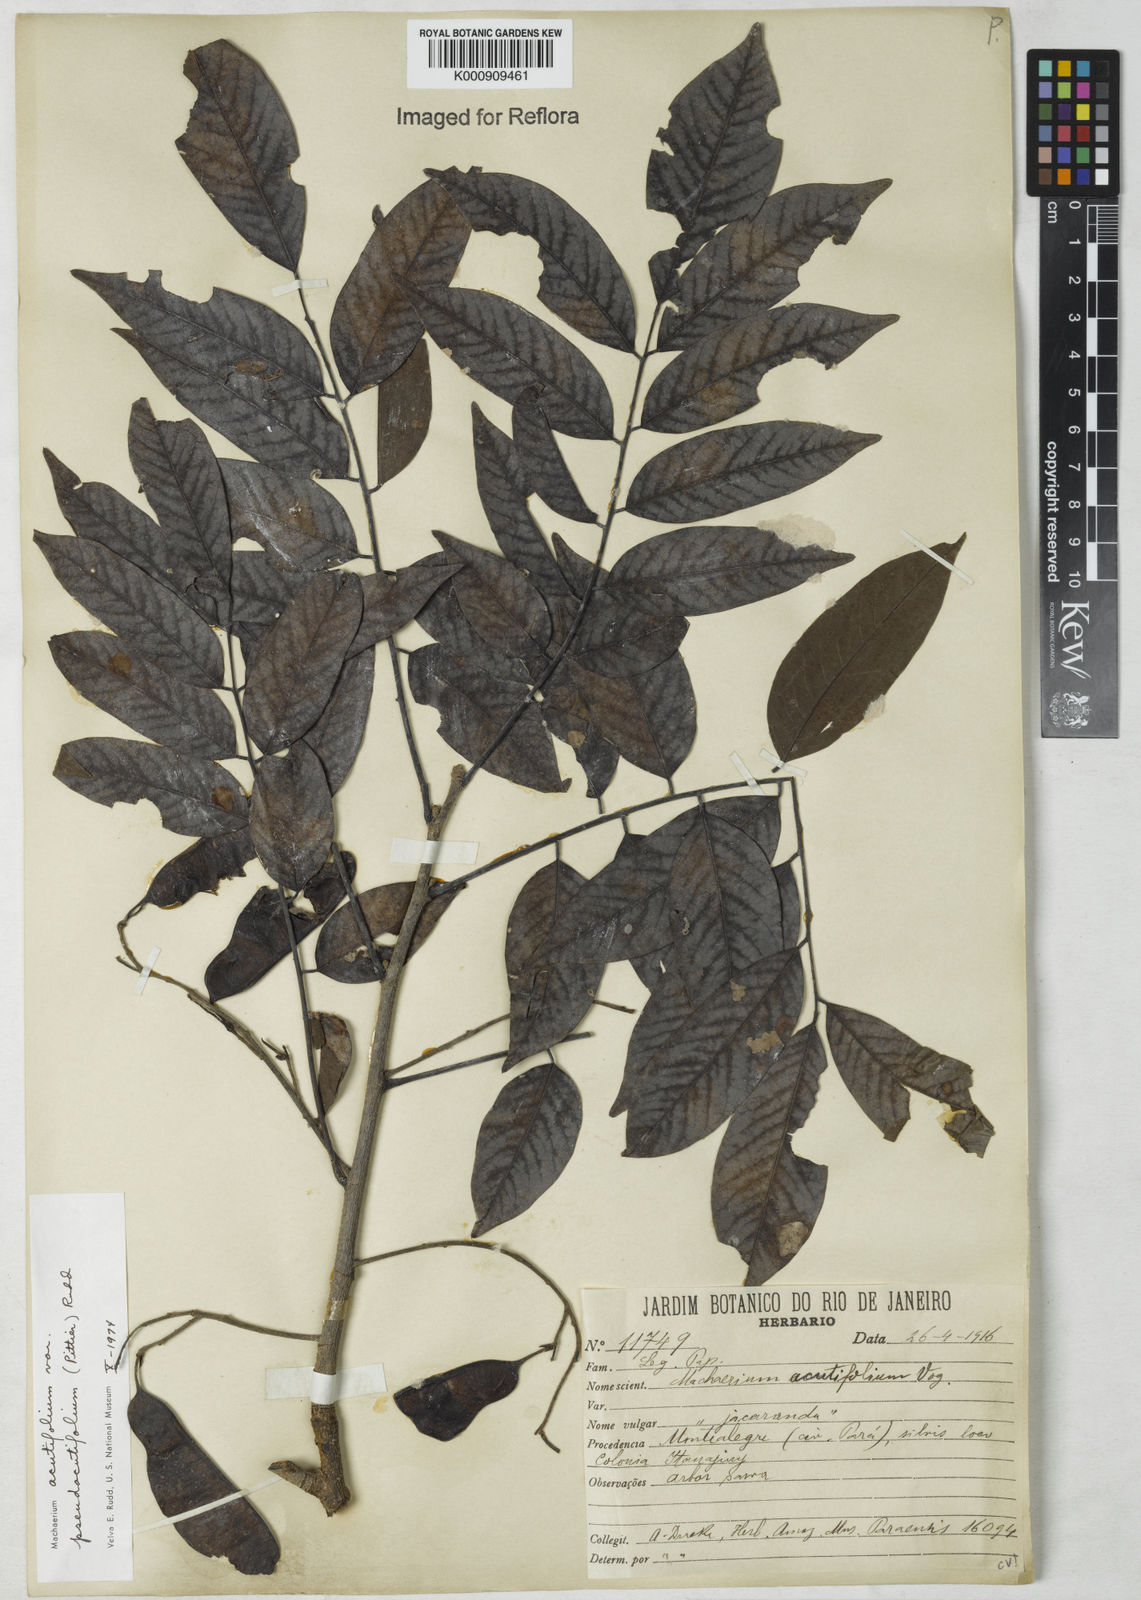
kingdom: Plantae
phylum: Tracheophyta
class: Magnoliopsida
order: Fabales
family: Fabaceae
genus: Machaerium
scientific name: Machaerium acutifolium
